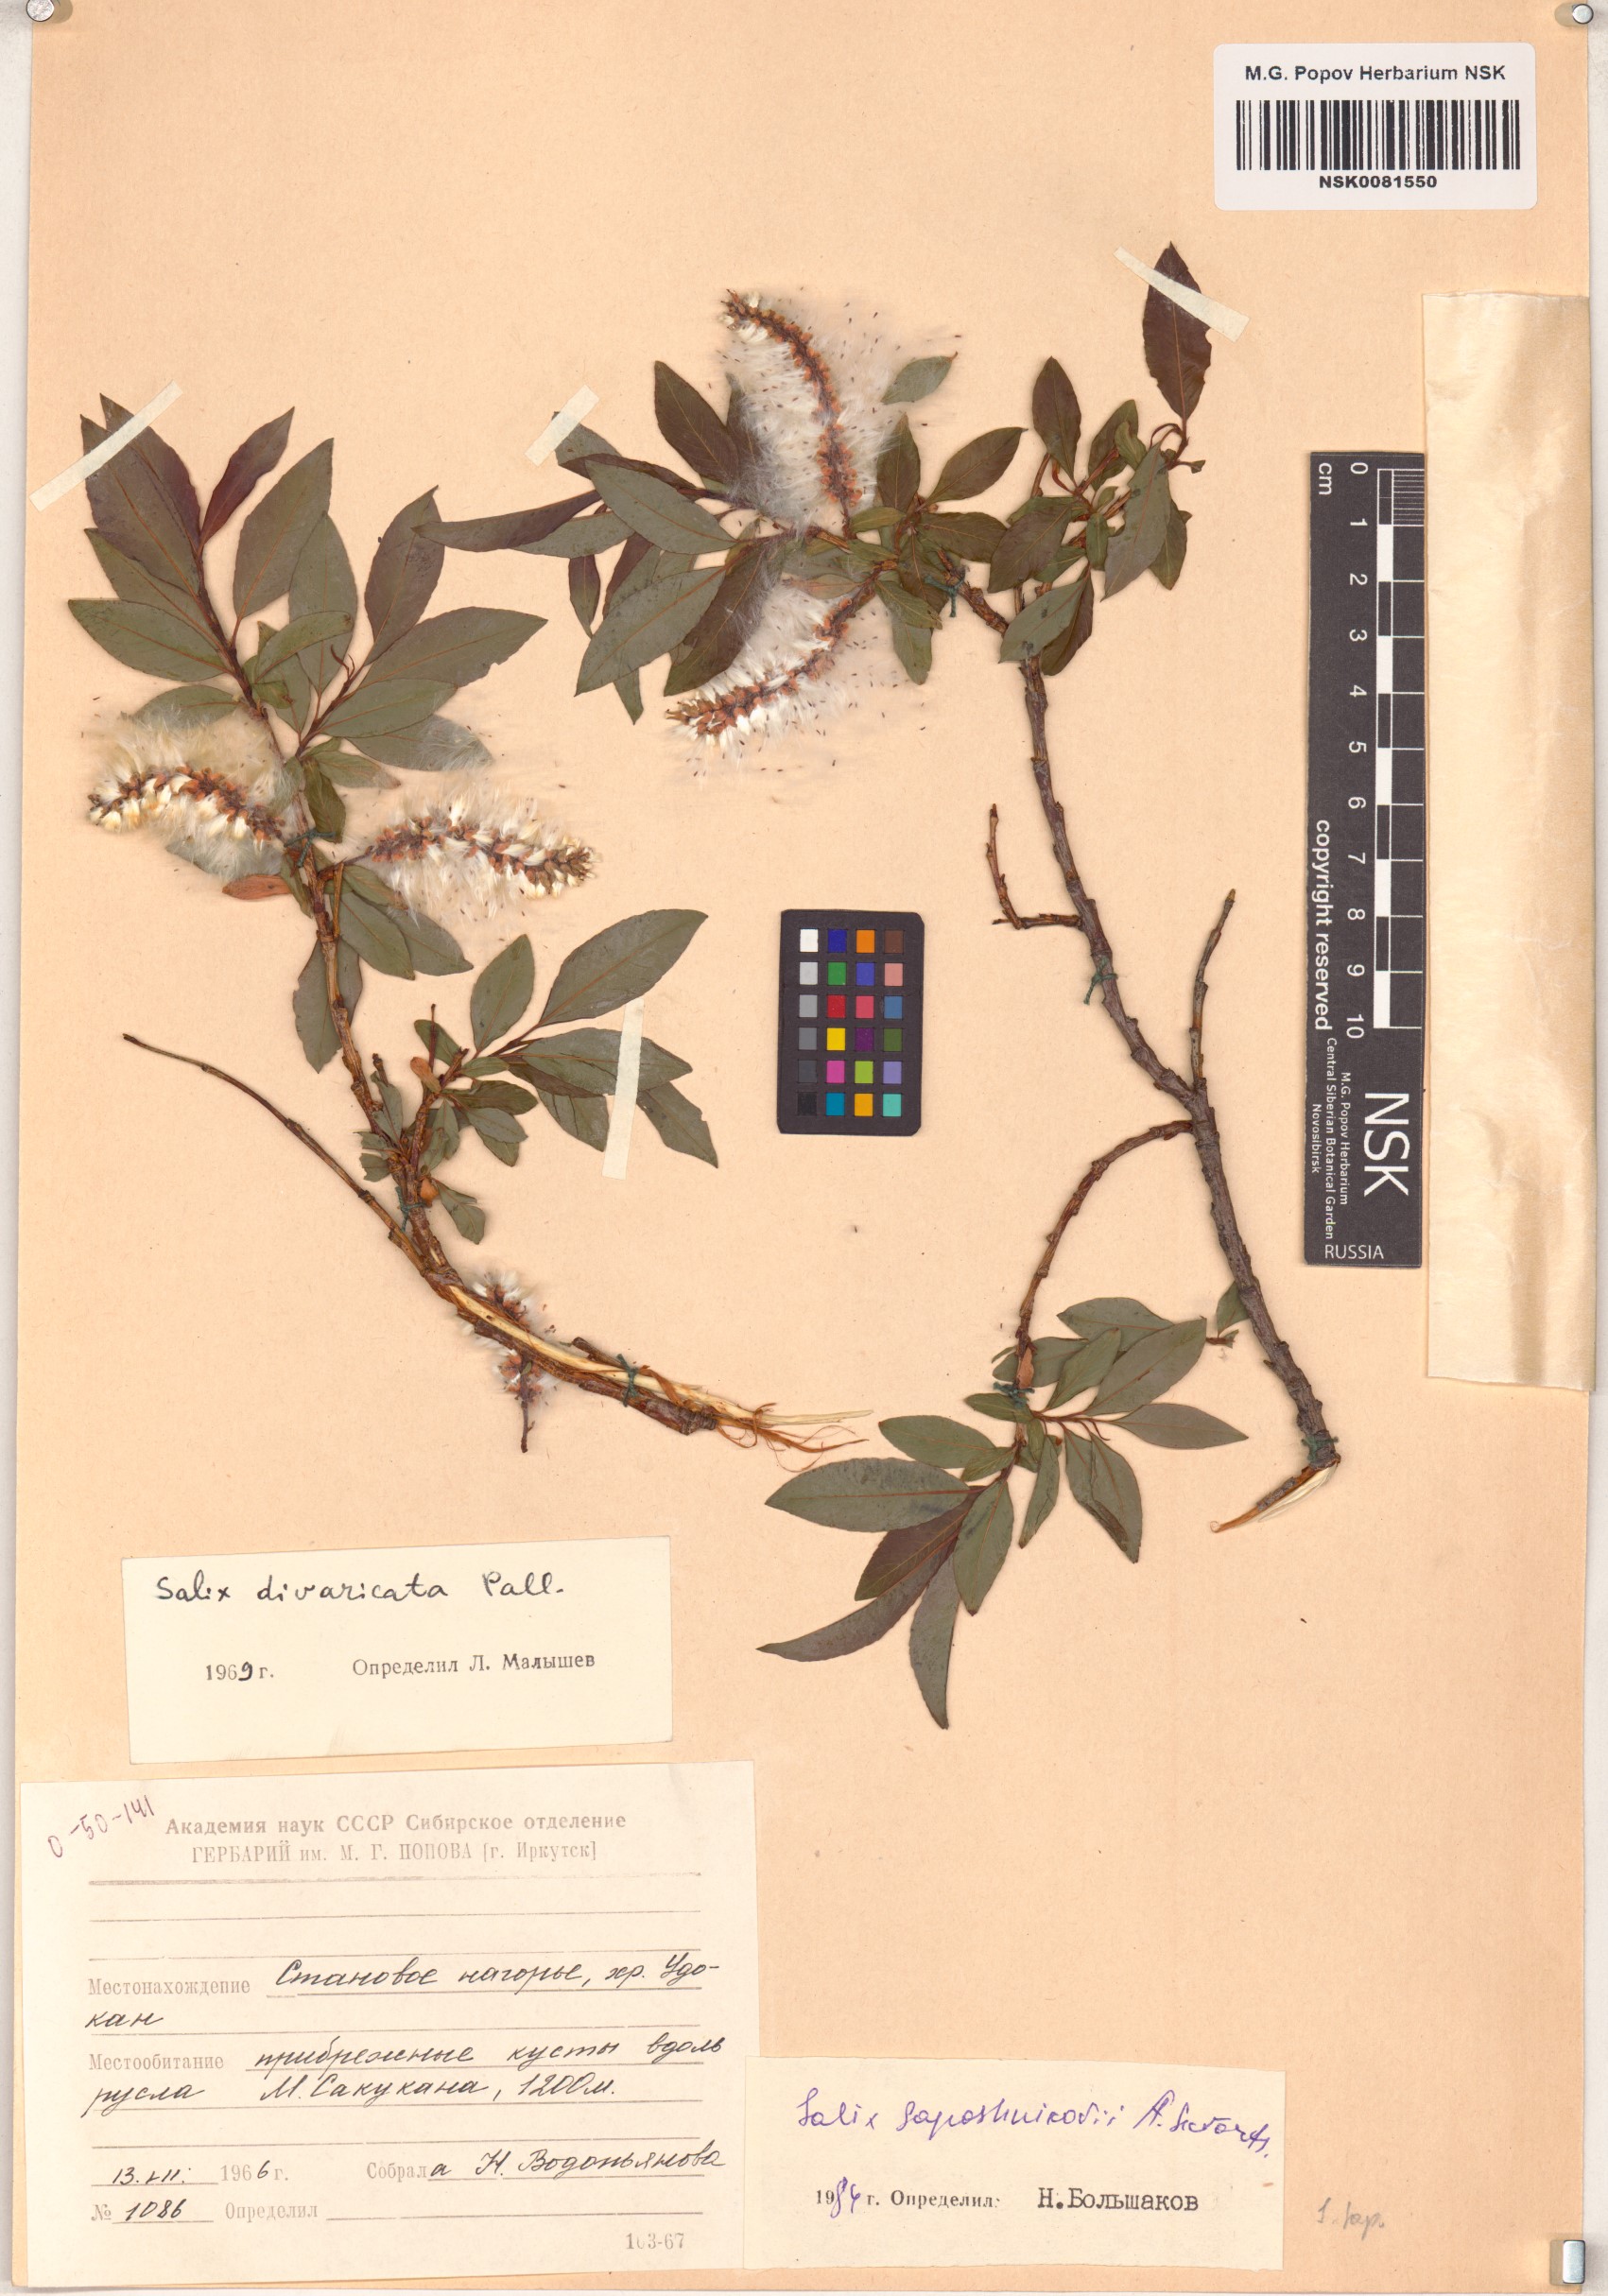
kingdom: Plantae
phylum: Tracheophyta
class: Magnoliopsida
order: Malpighiales
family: Salicaceae
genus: Salix
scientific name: Salix saposhnikovii
